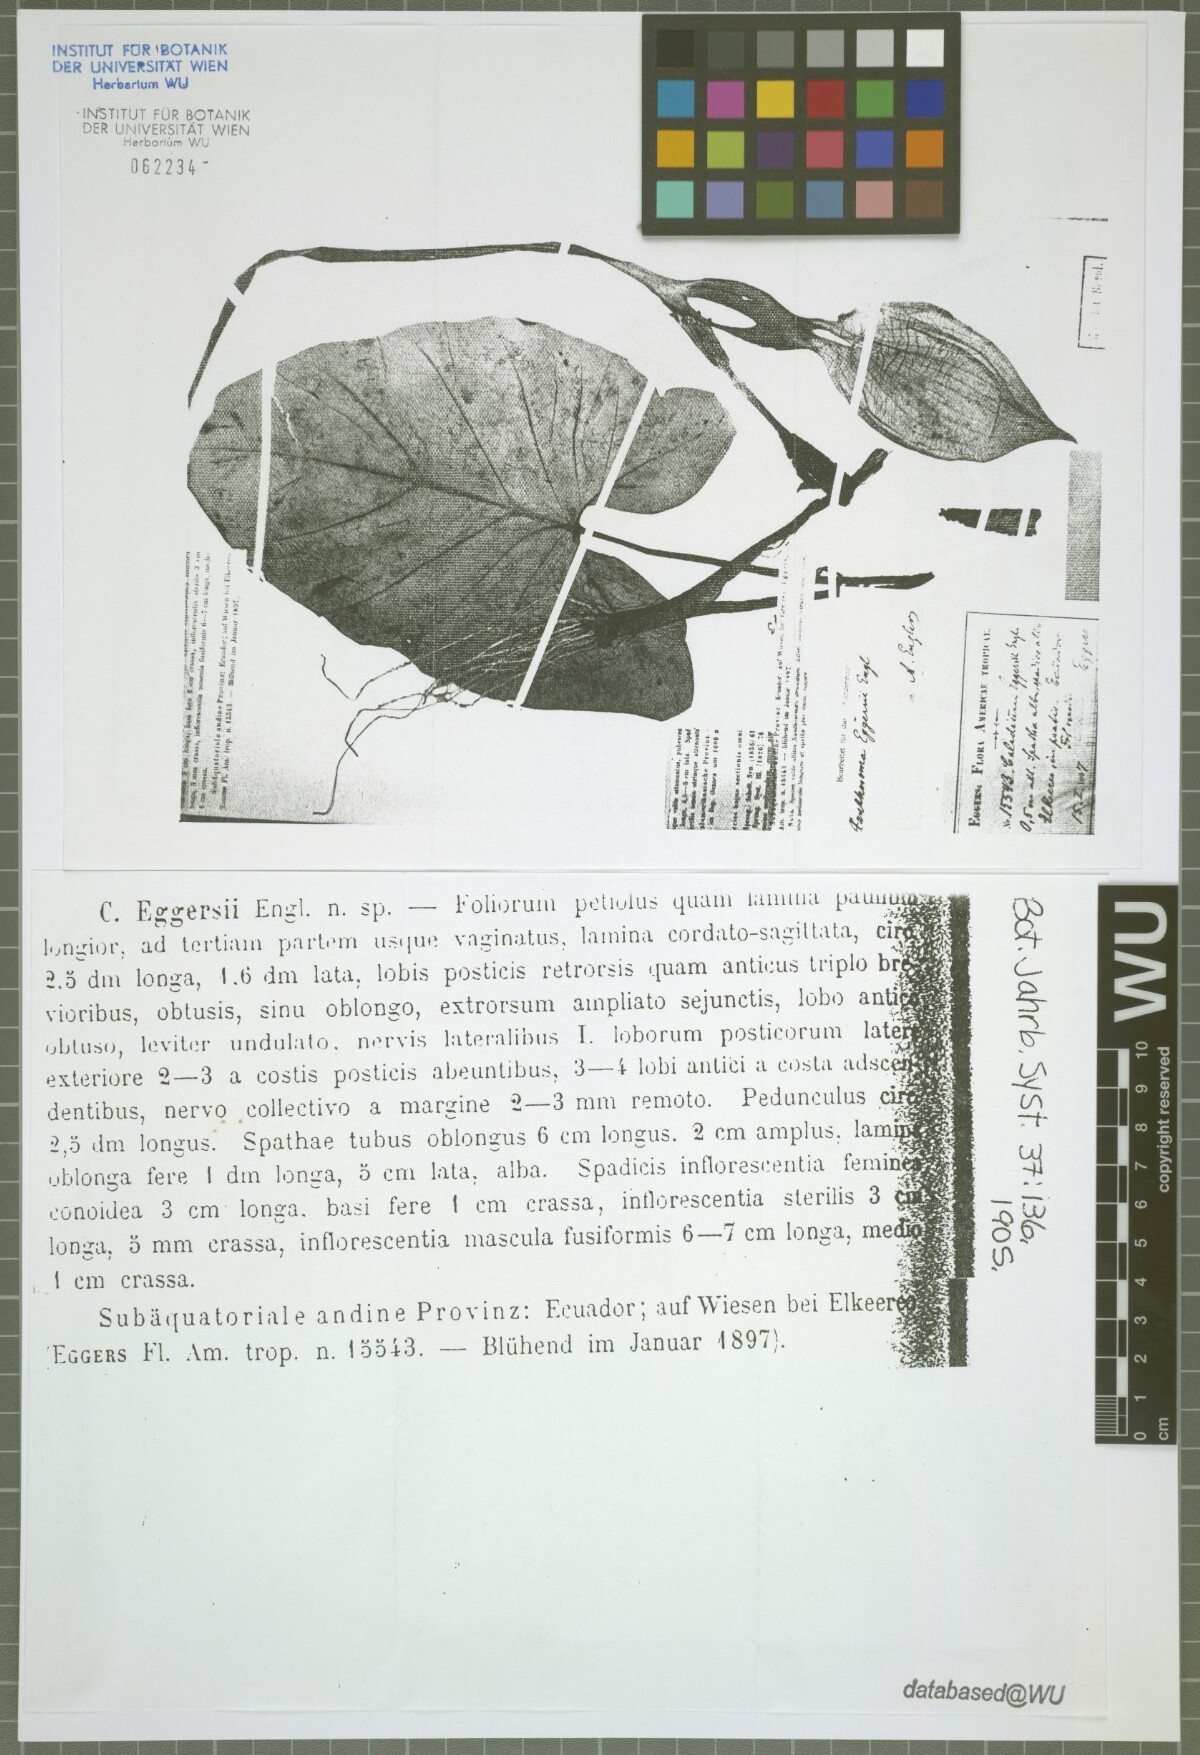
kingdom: Plantae
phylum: Tracheophyta
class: Liliopsida
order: Alismatales
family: Araceae
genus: Xanthosoma
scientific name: Xanthosoma eggersii
